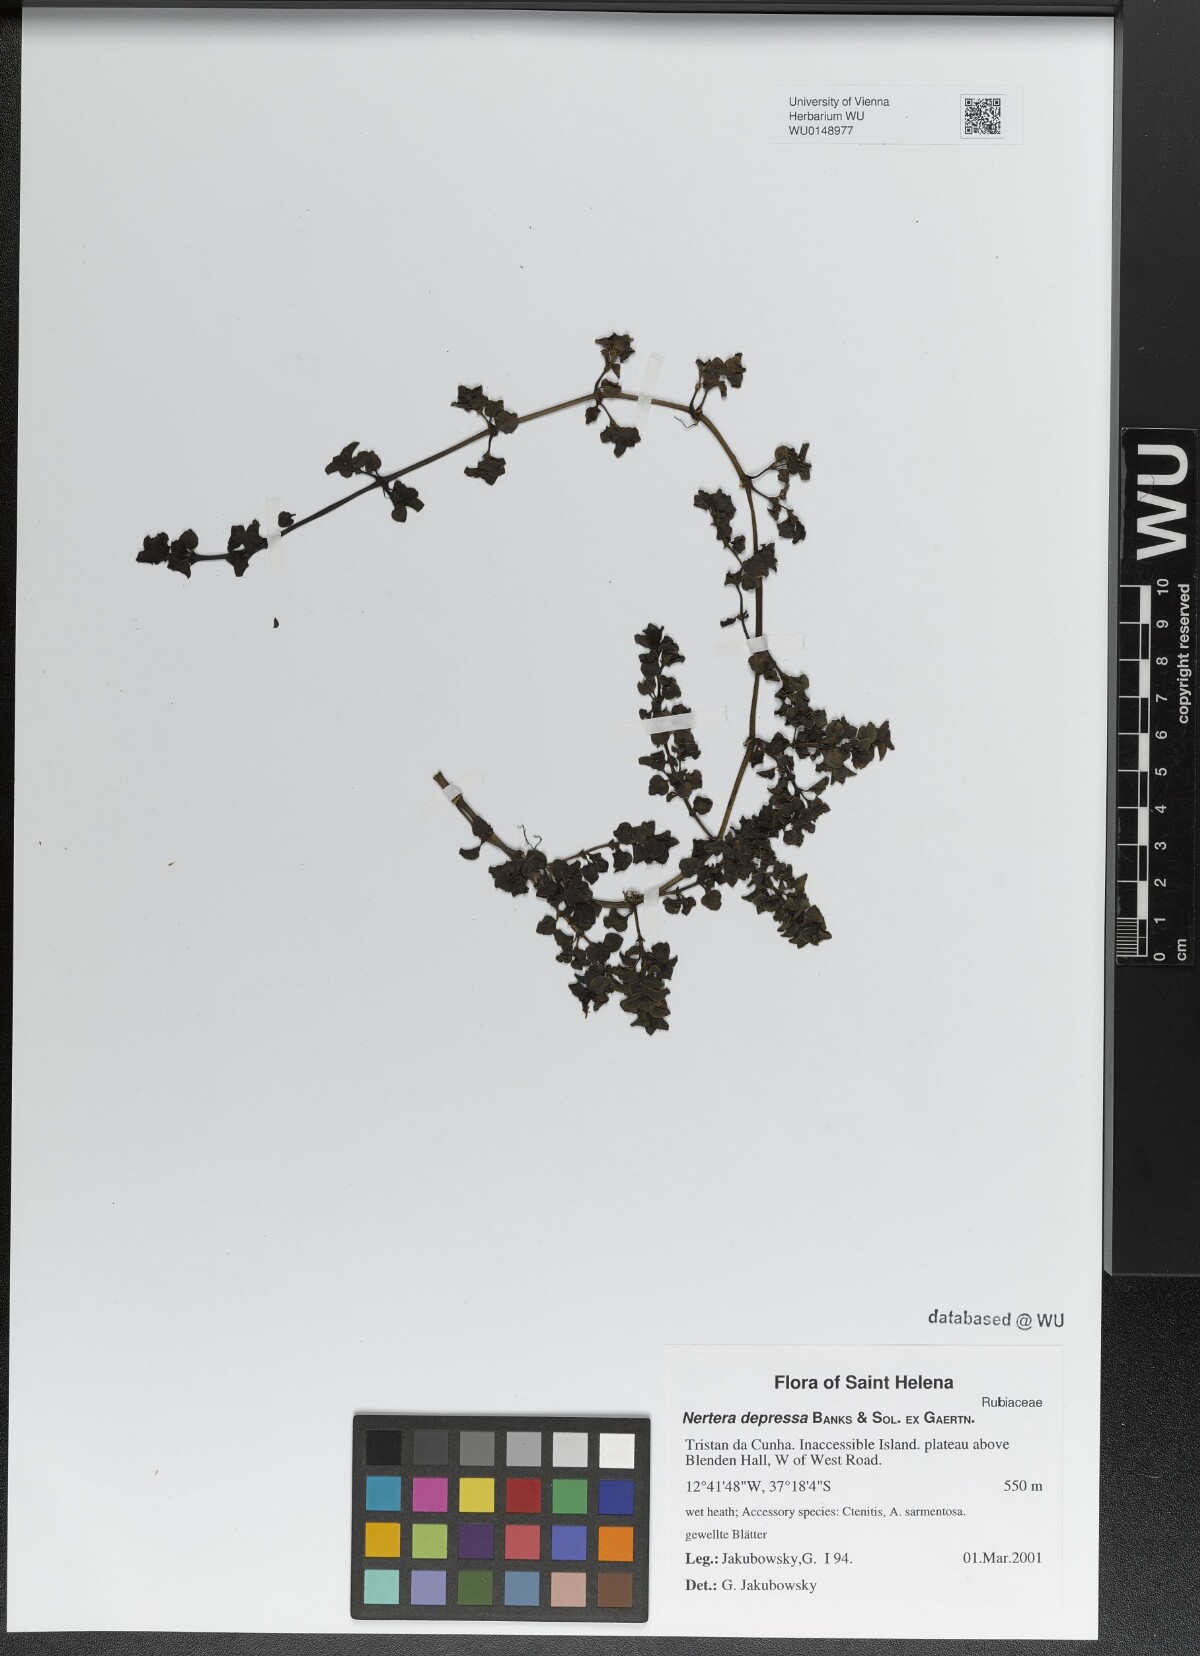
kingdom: Plantae
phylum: Tracheophyta
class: Magnoliopsida
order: Gentianales
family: Rubiaceae
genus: Nertera
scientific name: Nertera granadensis
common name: Beadplant
